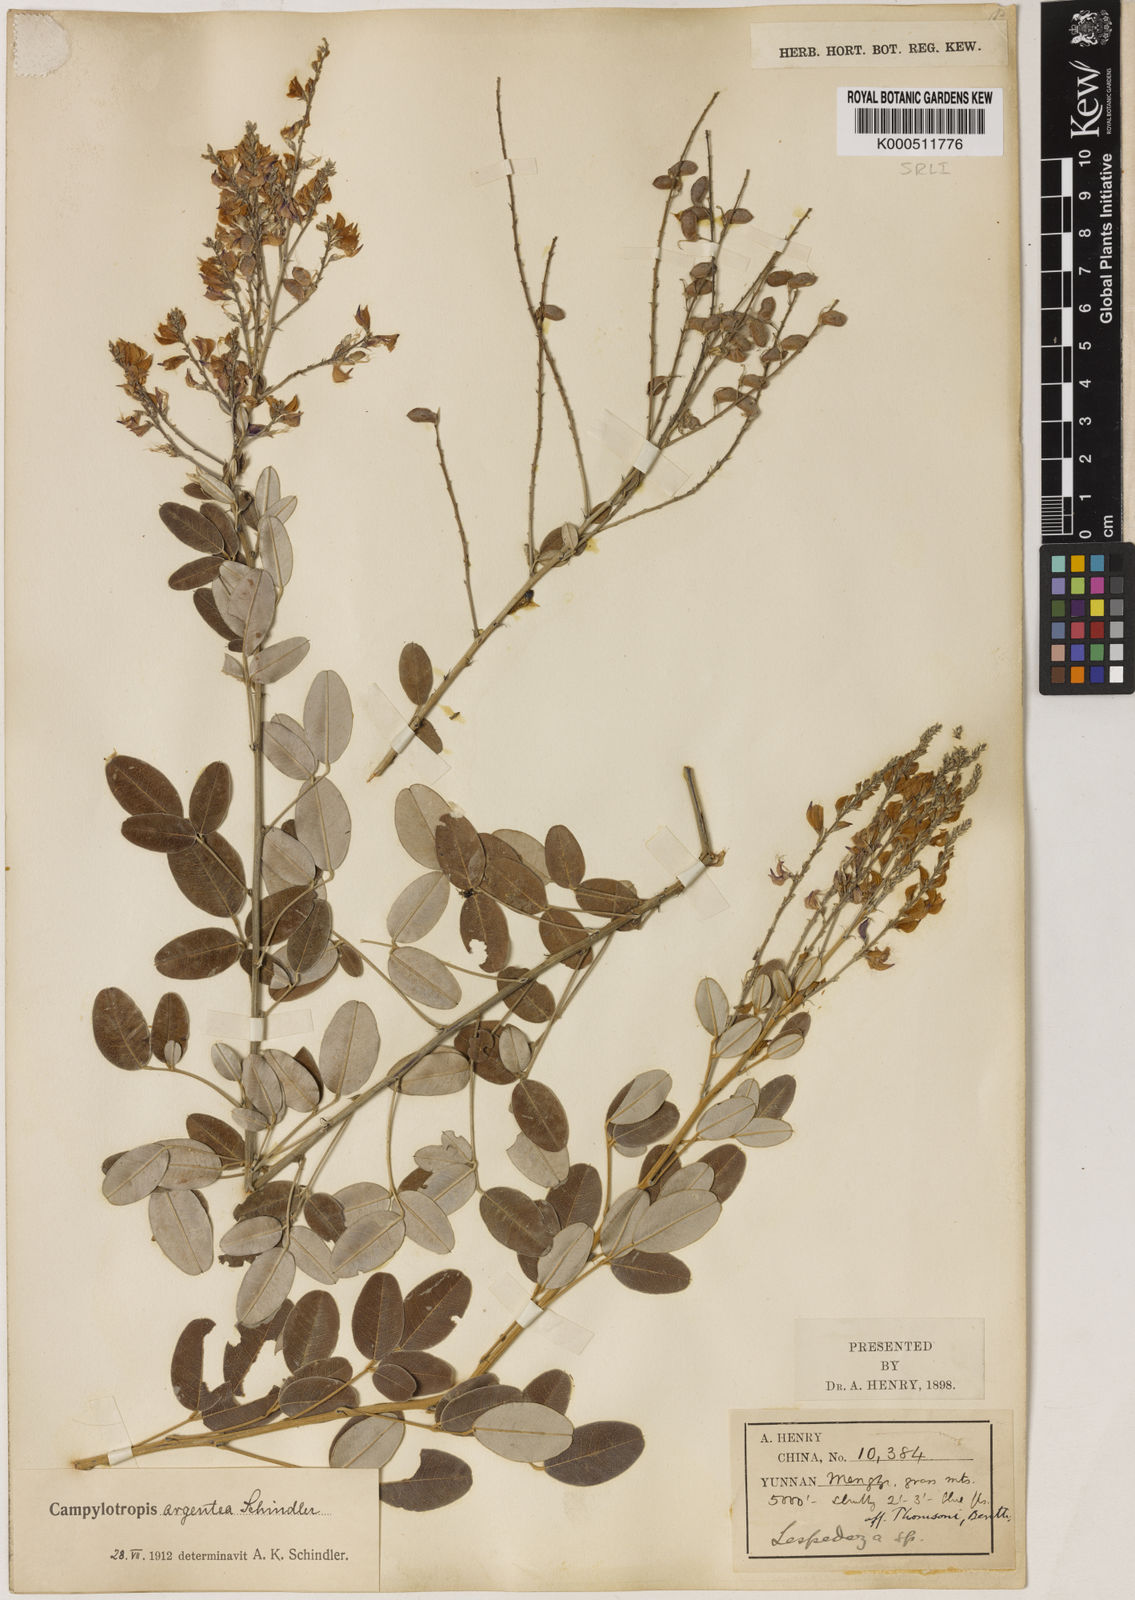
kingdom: Plantae
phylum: Tracheophyta
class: Magnoliopsida
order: Fabales
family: Fabaceae
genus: Campylotropis
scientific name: Campylotropis argentea
